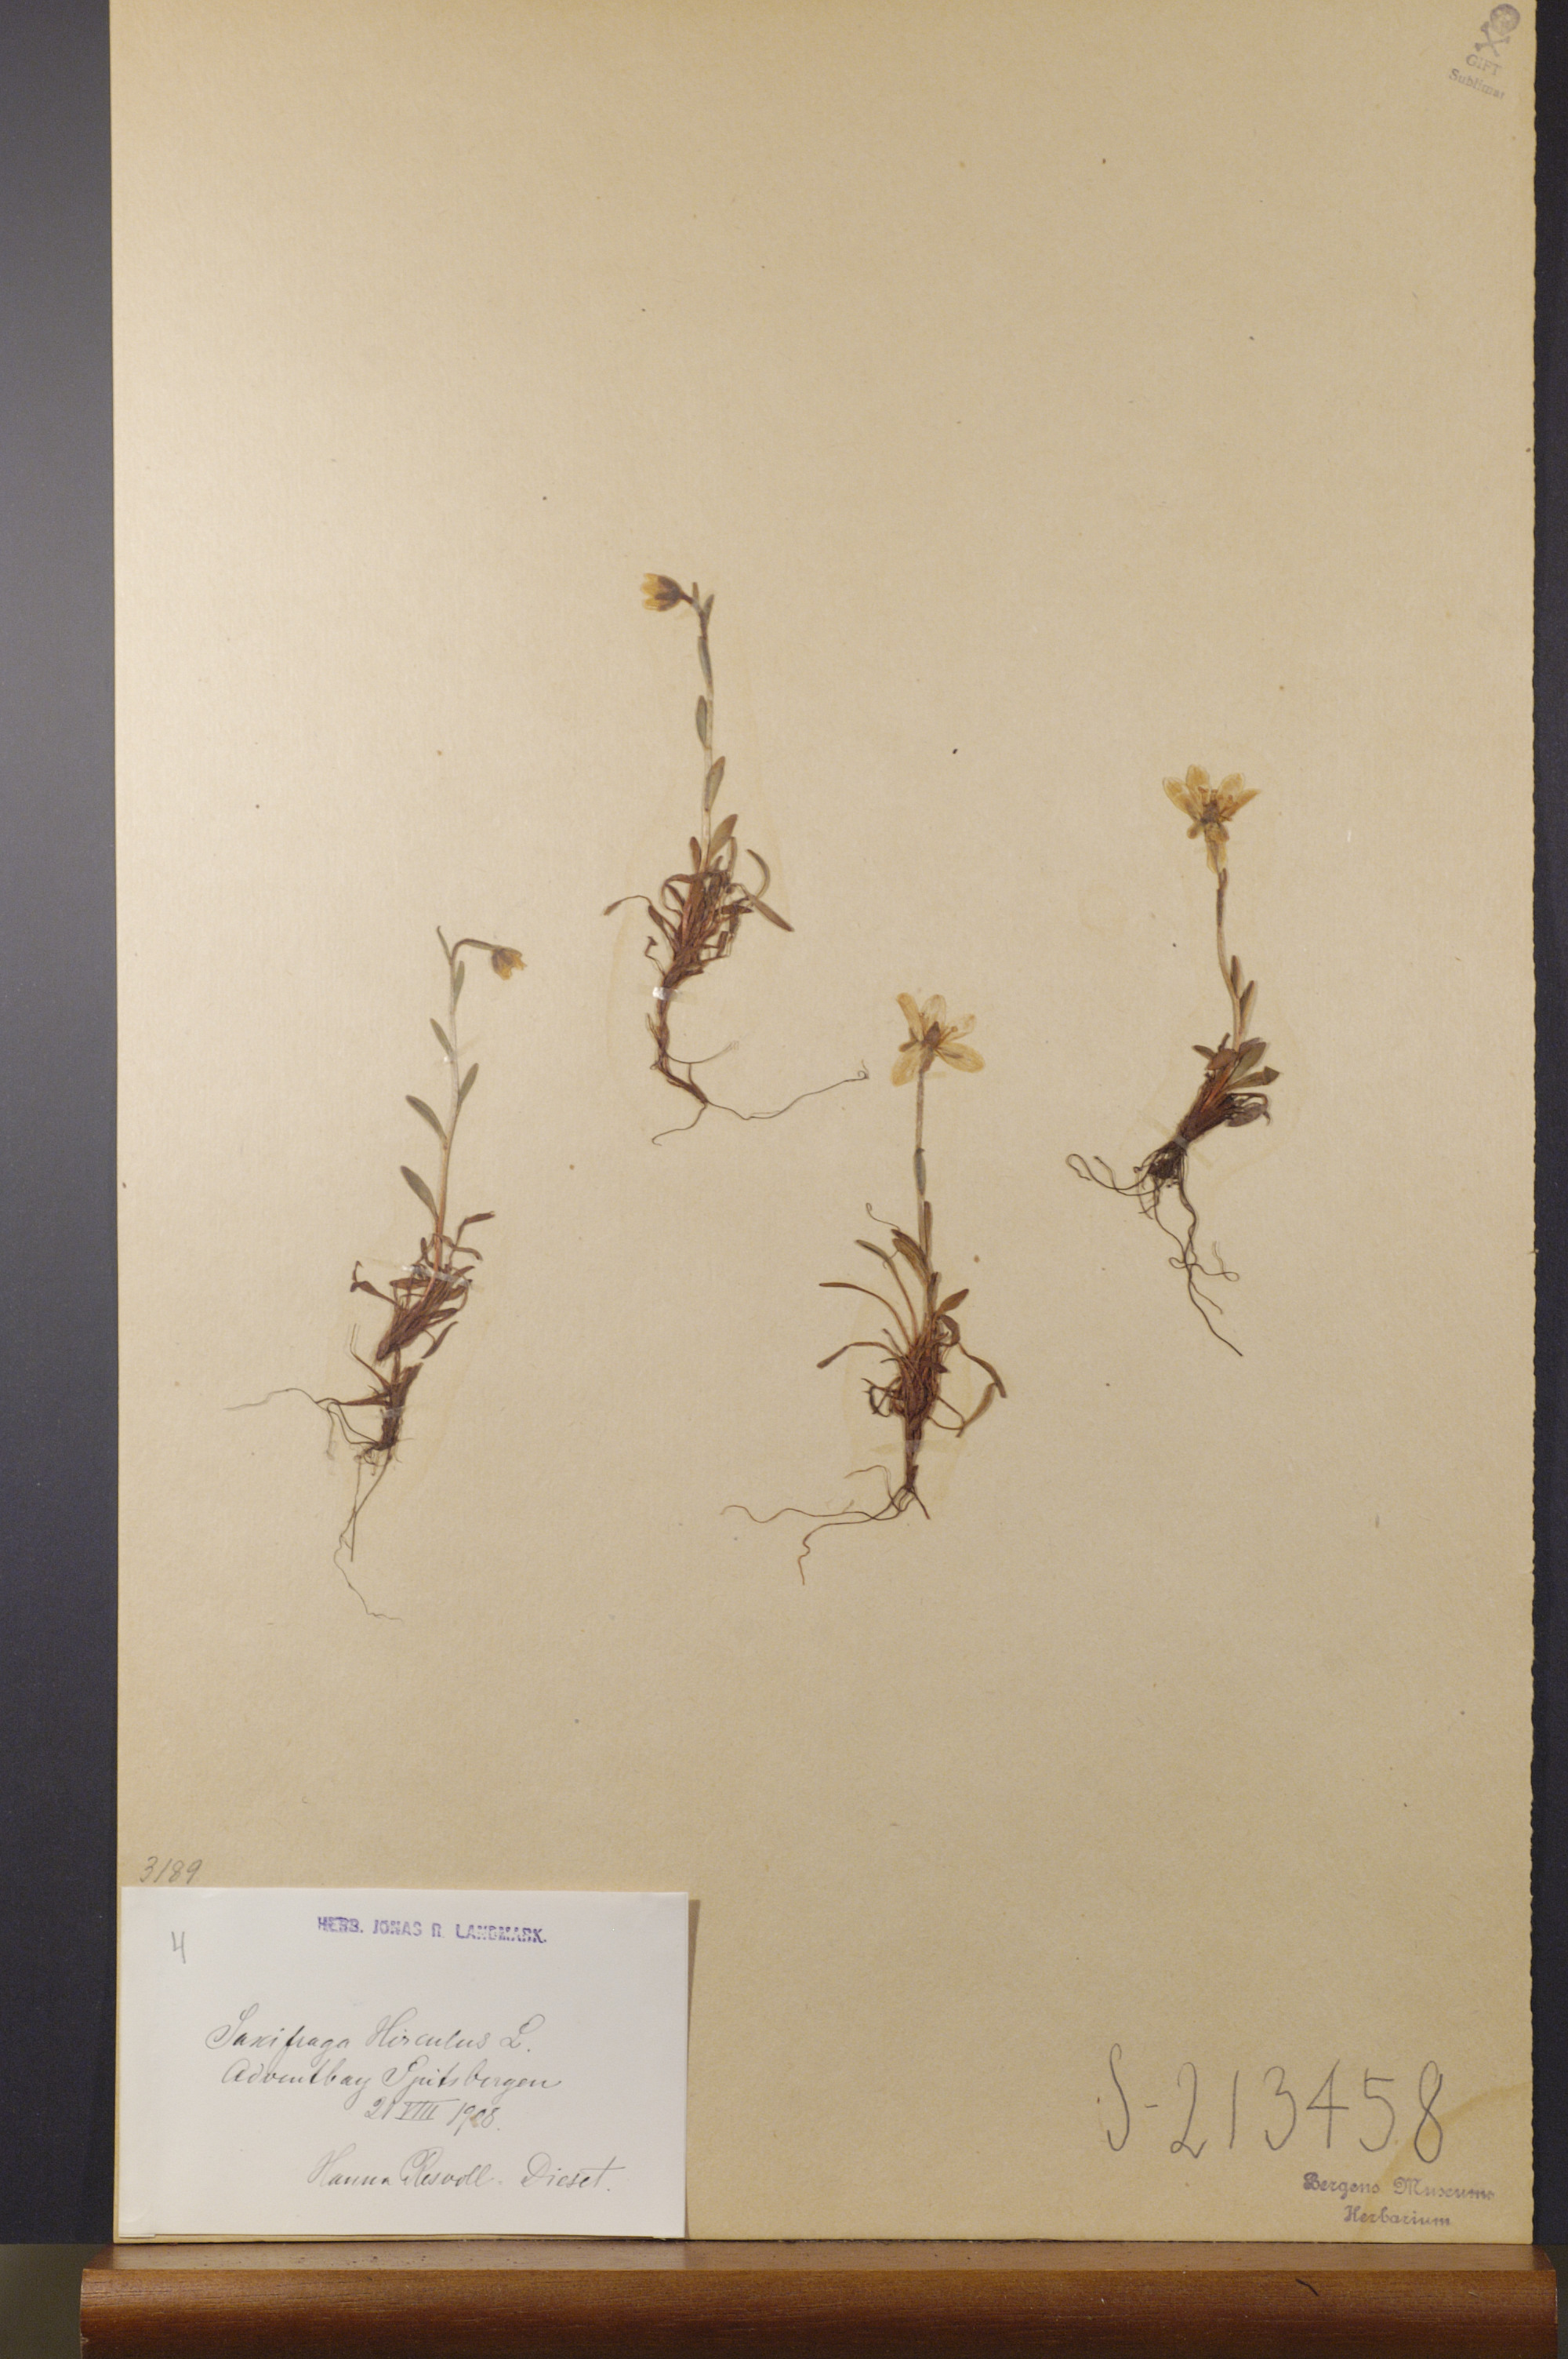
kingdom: Plantae
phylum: Tracheophyta
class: Magnoliopsida
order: Saxifragales
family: Saxifragaceae
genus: Saxifraga
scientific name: Saxifraga hirculus
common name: Yellow marsh saxifrage
